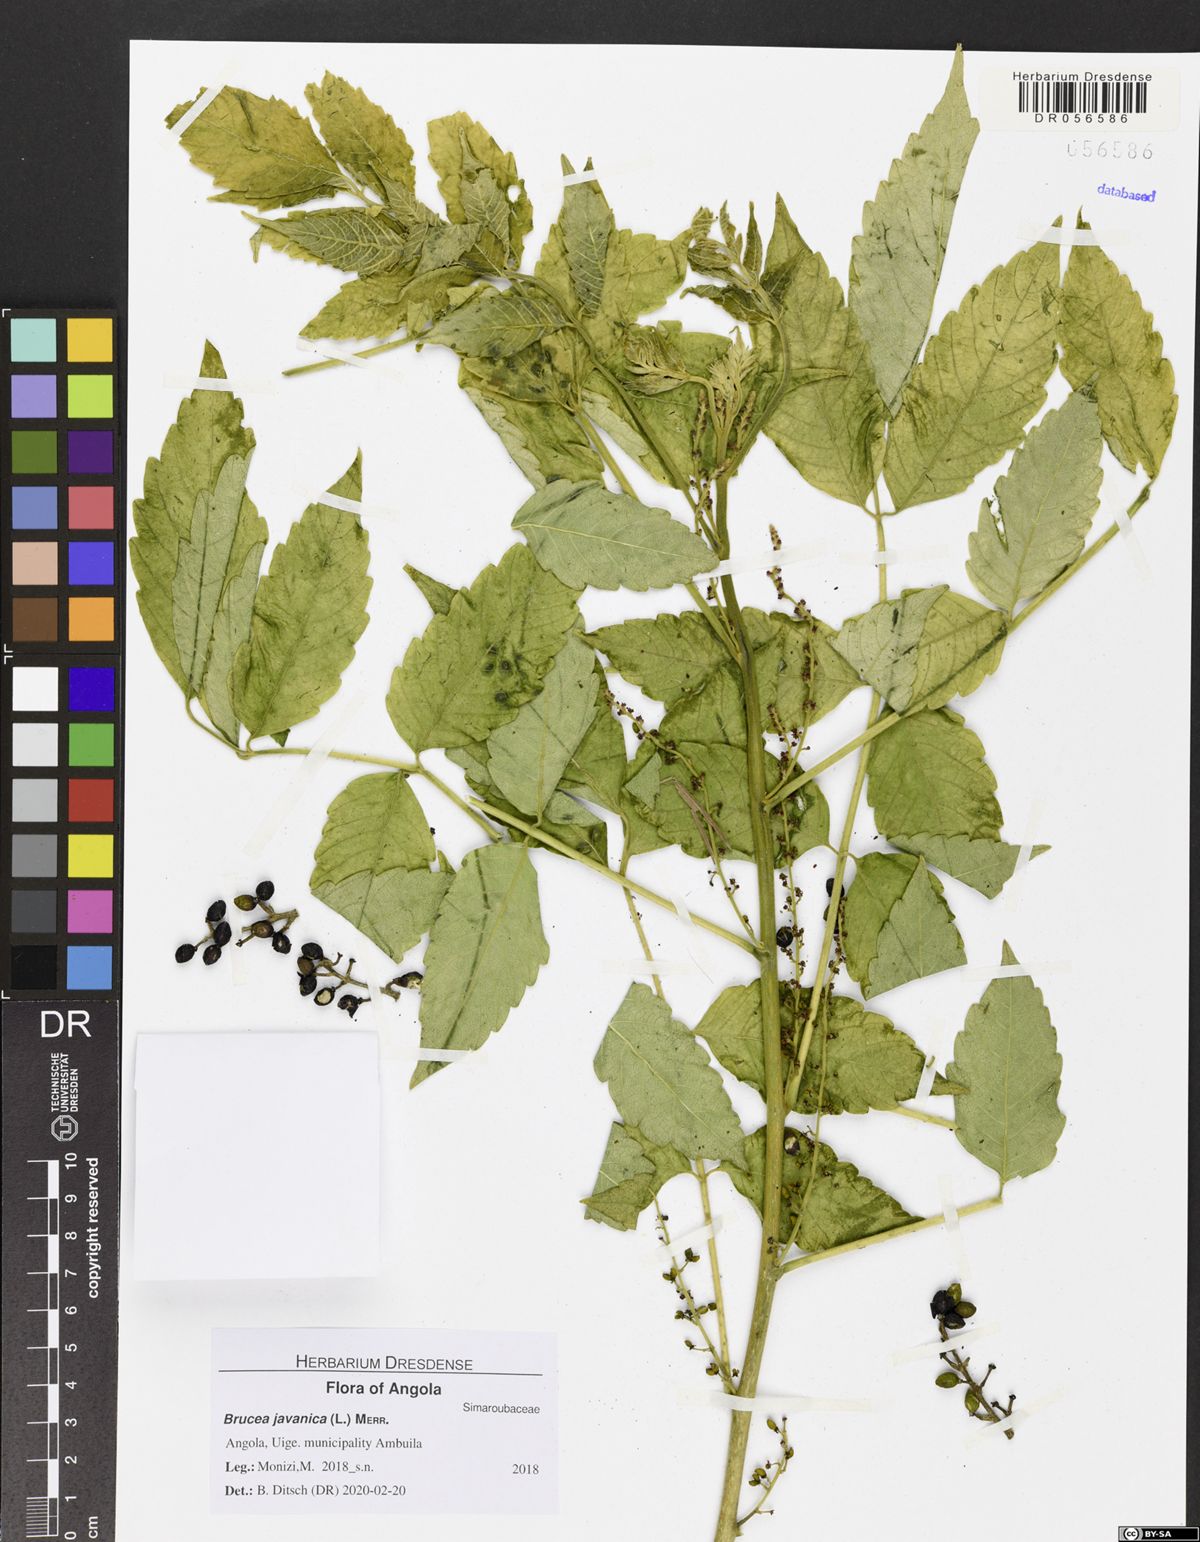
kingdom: Plantae
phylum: Tracheophyta
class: Magnoliopsida
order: Sapindales
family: Simaroubaceae
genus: Brucea
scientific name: Brucea javanica
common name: Macassar kernels
